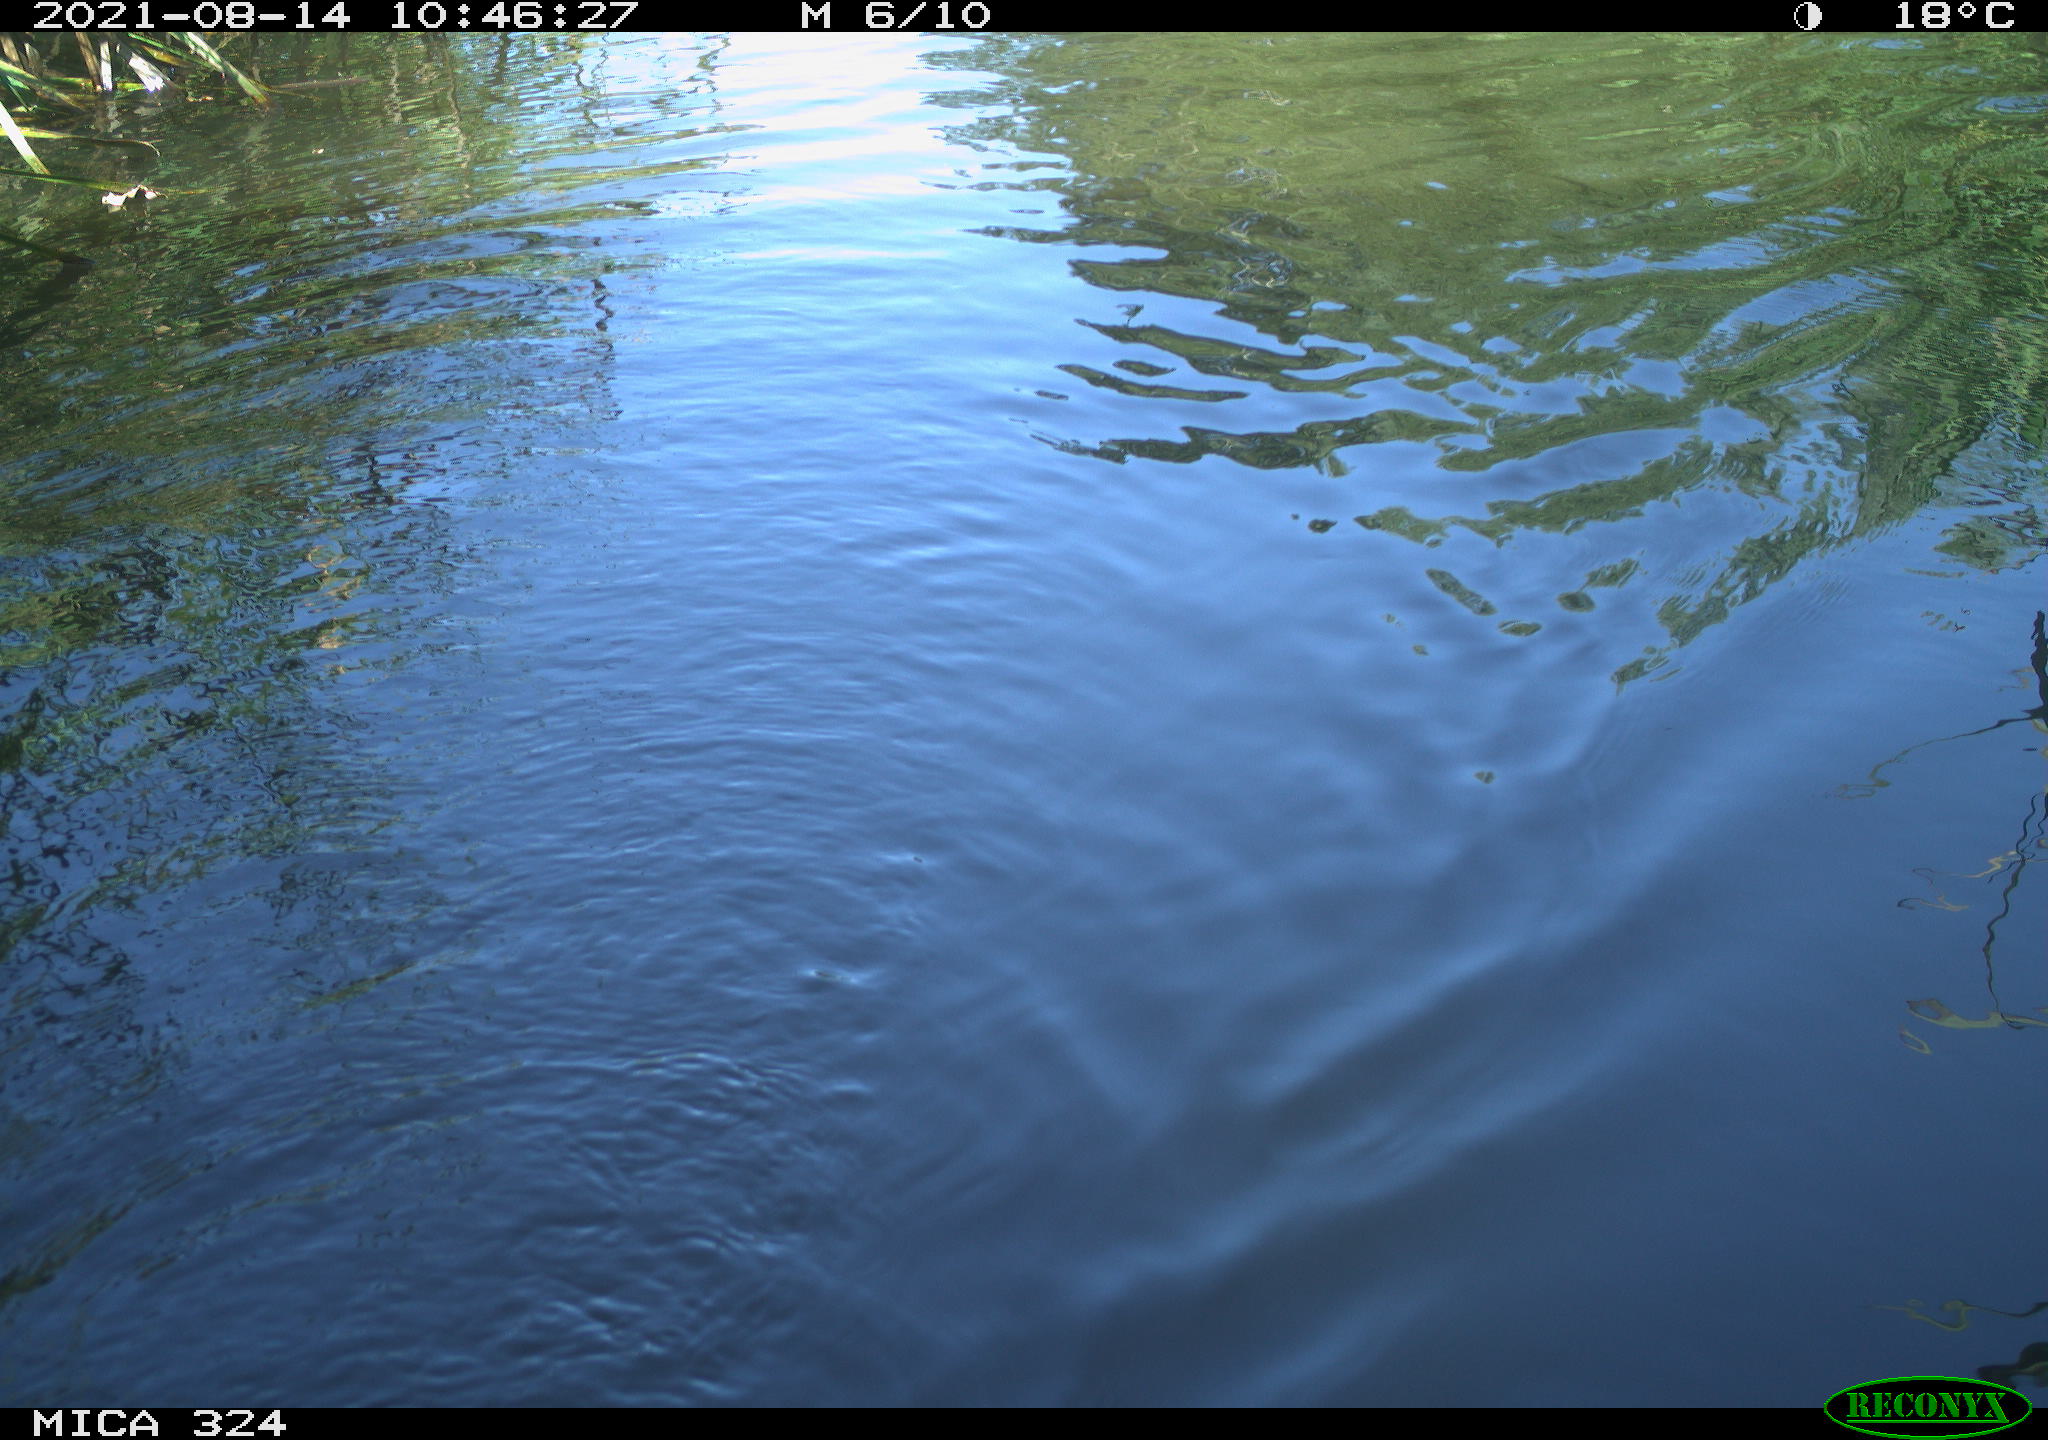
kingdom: Animalia
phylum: Chordata
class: Mammalia
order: Rodentia
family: Cricetidae
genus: Ondatra
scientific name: Ondatra zibethicus
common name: Muskrat
